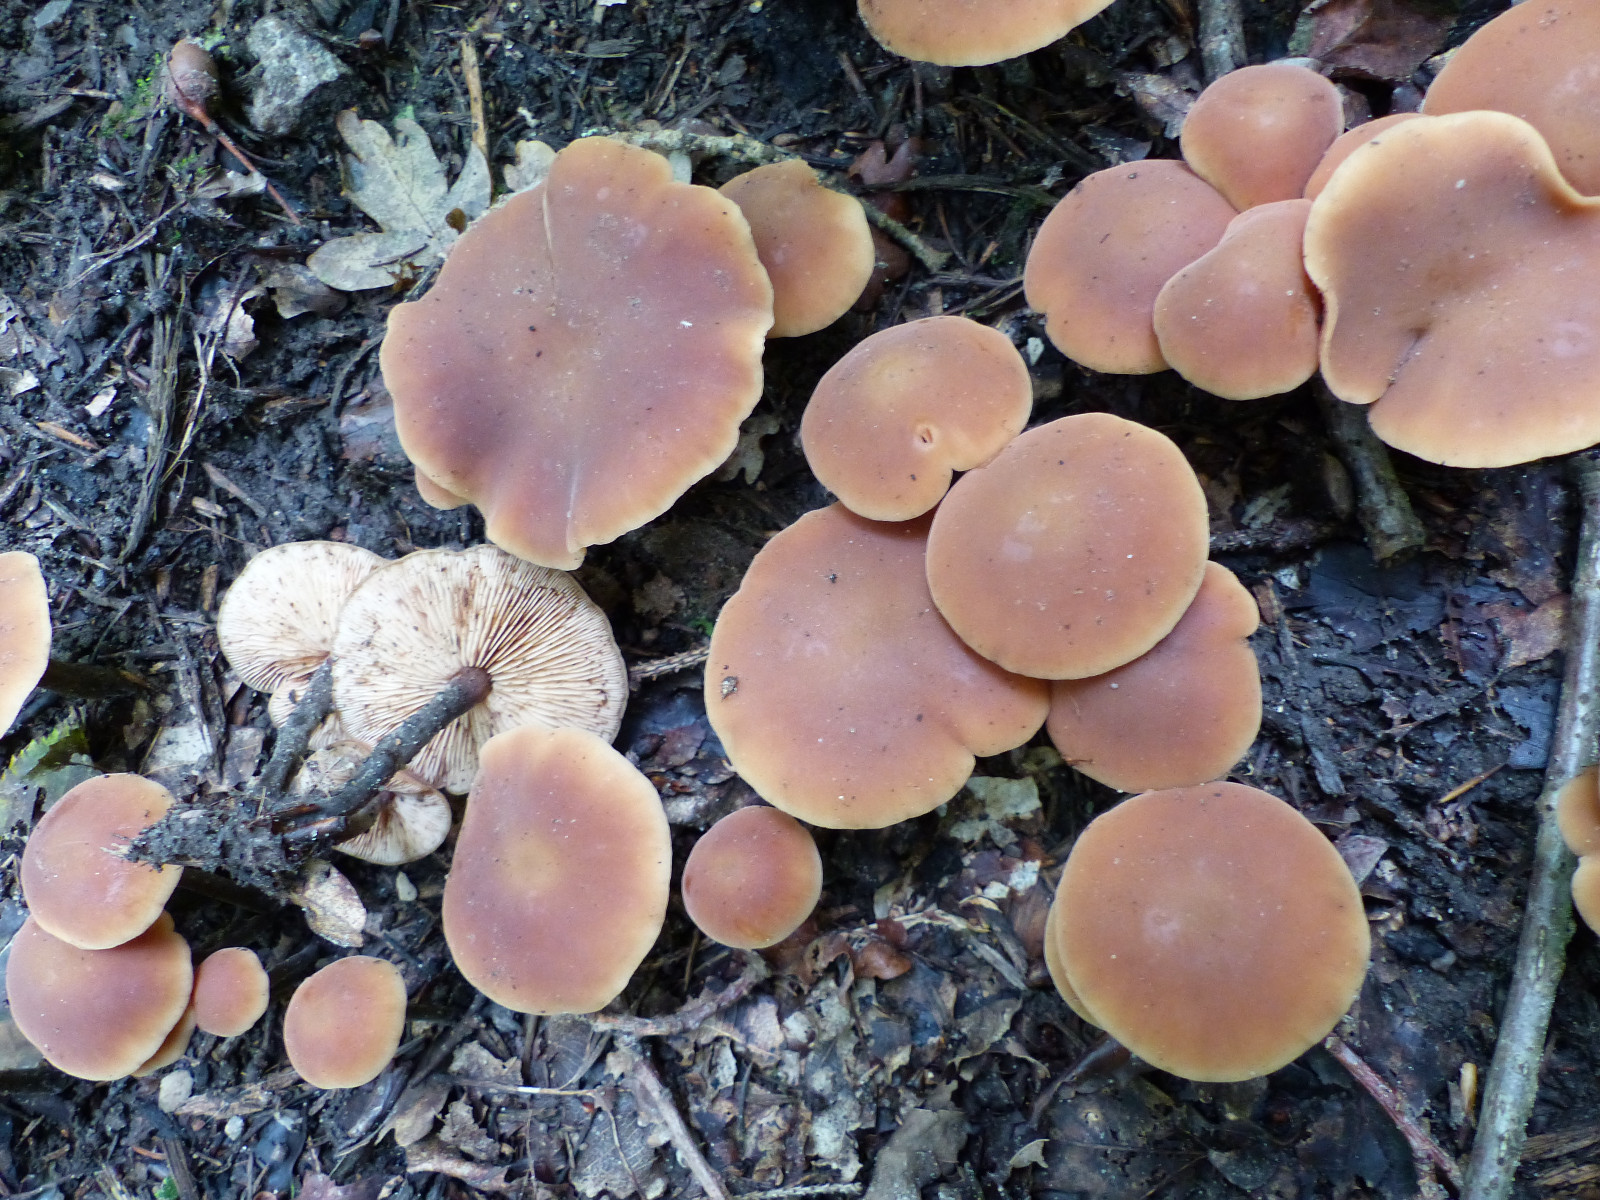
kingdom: Fungi
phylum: Basidiomycota
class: Agaricomycetes
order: Agaricales
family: Macrocystidiaceae
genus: Macrocystidia
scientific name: Macrocystidia cucumis
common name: agurkehat
